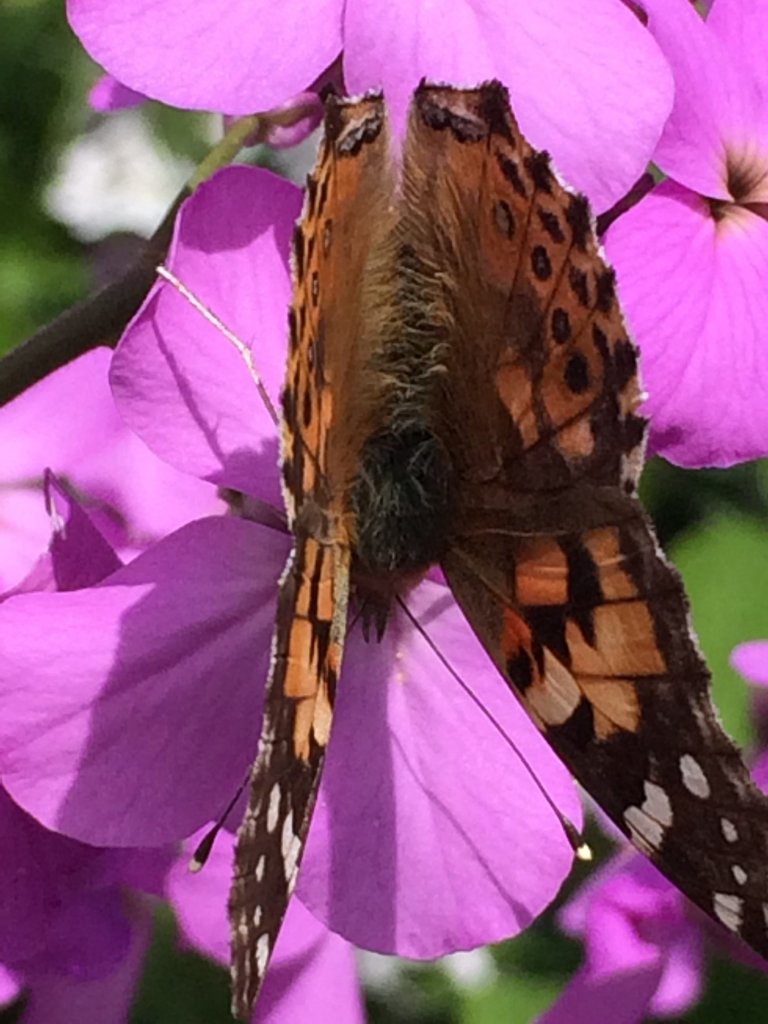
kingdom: Animalia
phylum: Arthropoda
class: Insecta
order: Lepidoptera
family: Nymphalidae
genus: Vanessa
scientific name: Vanessa cardui
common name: Painted Lady
